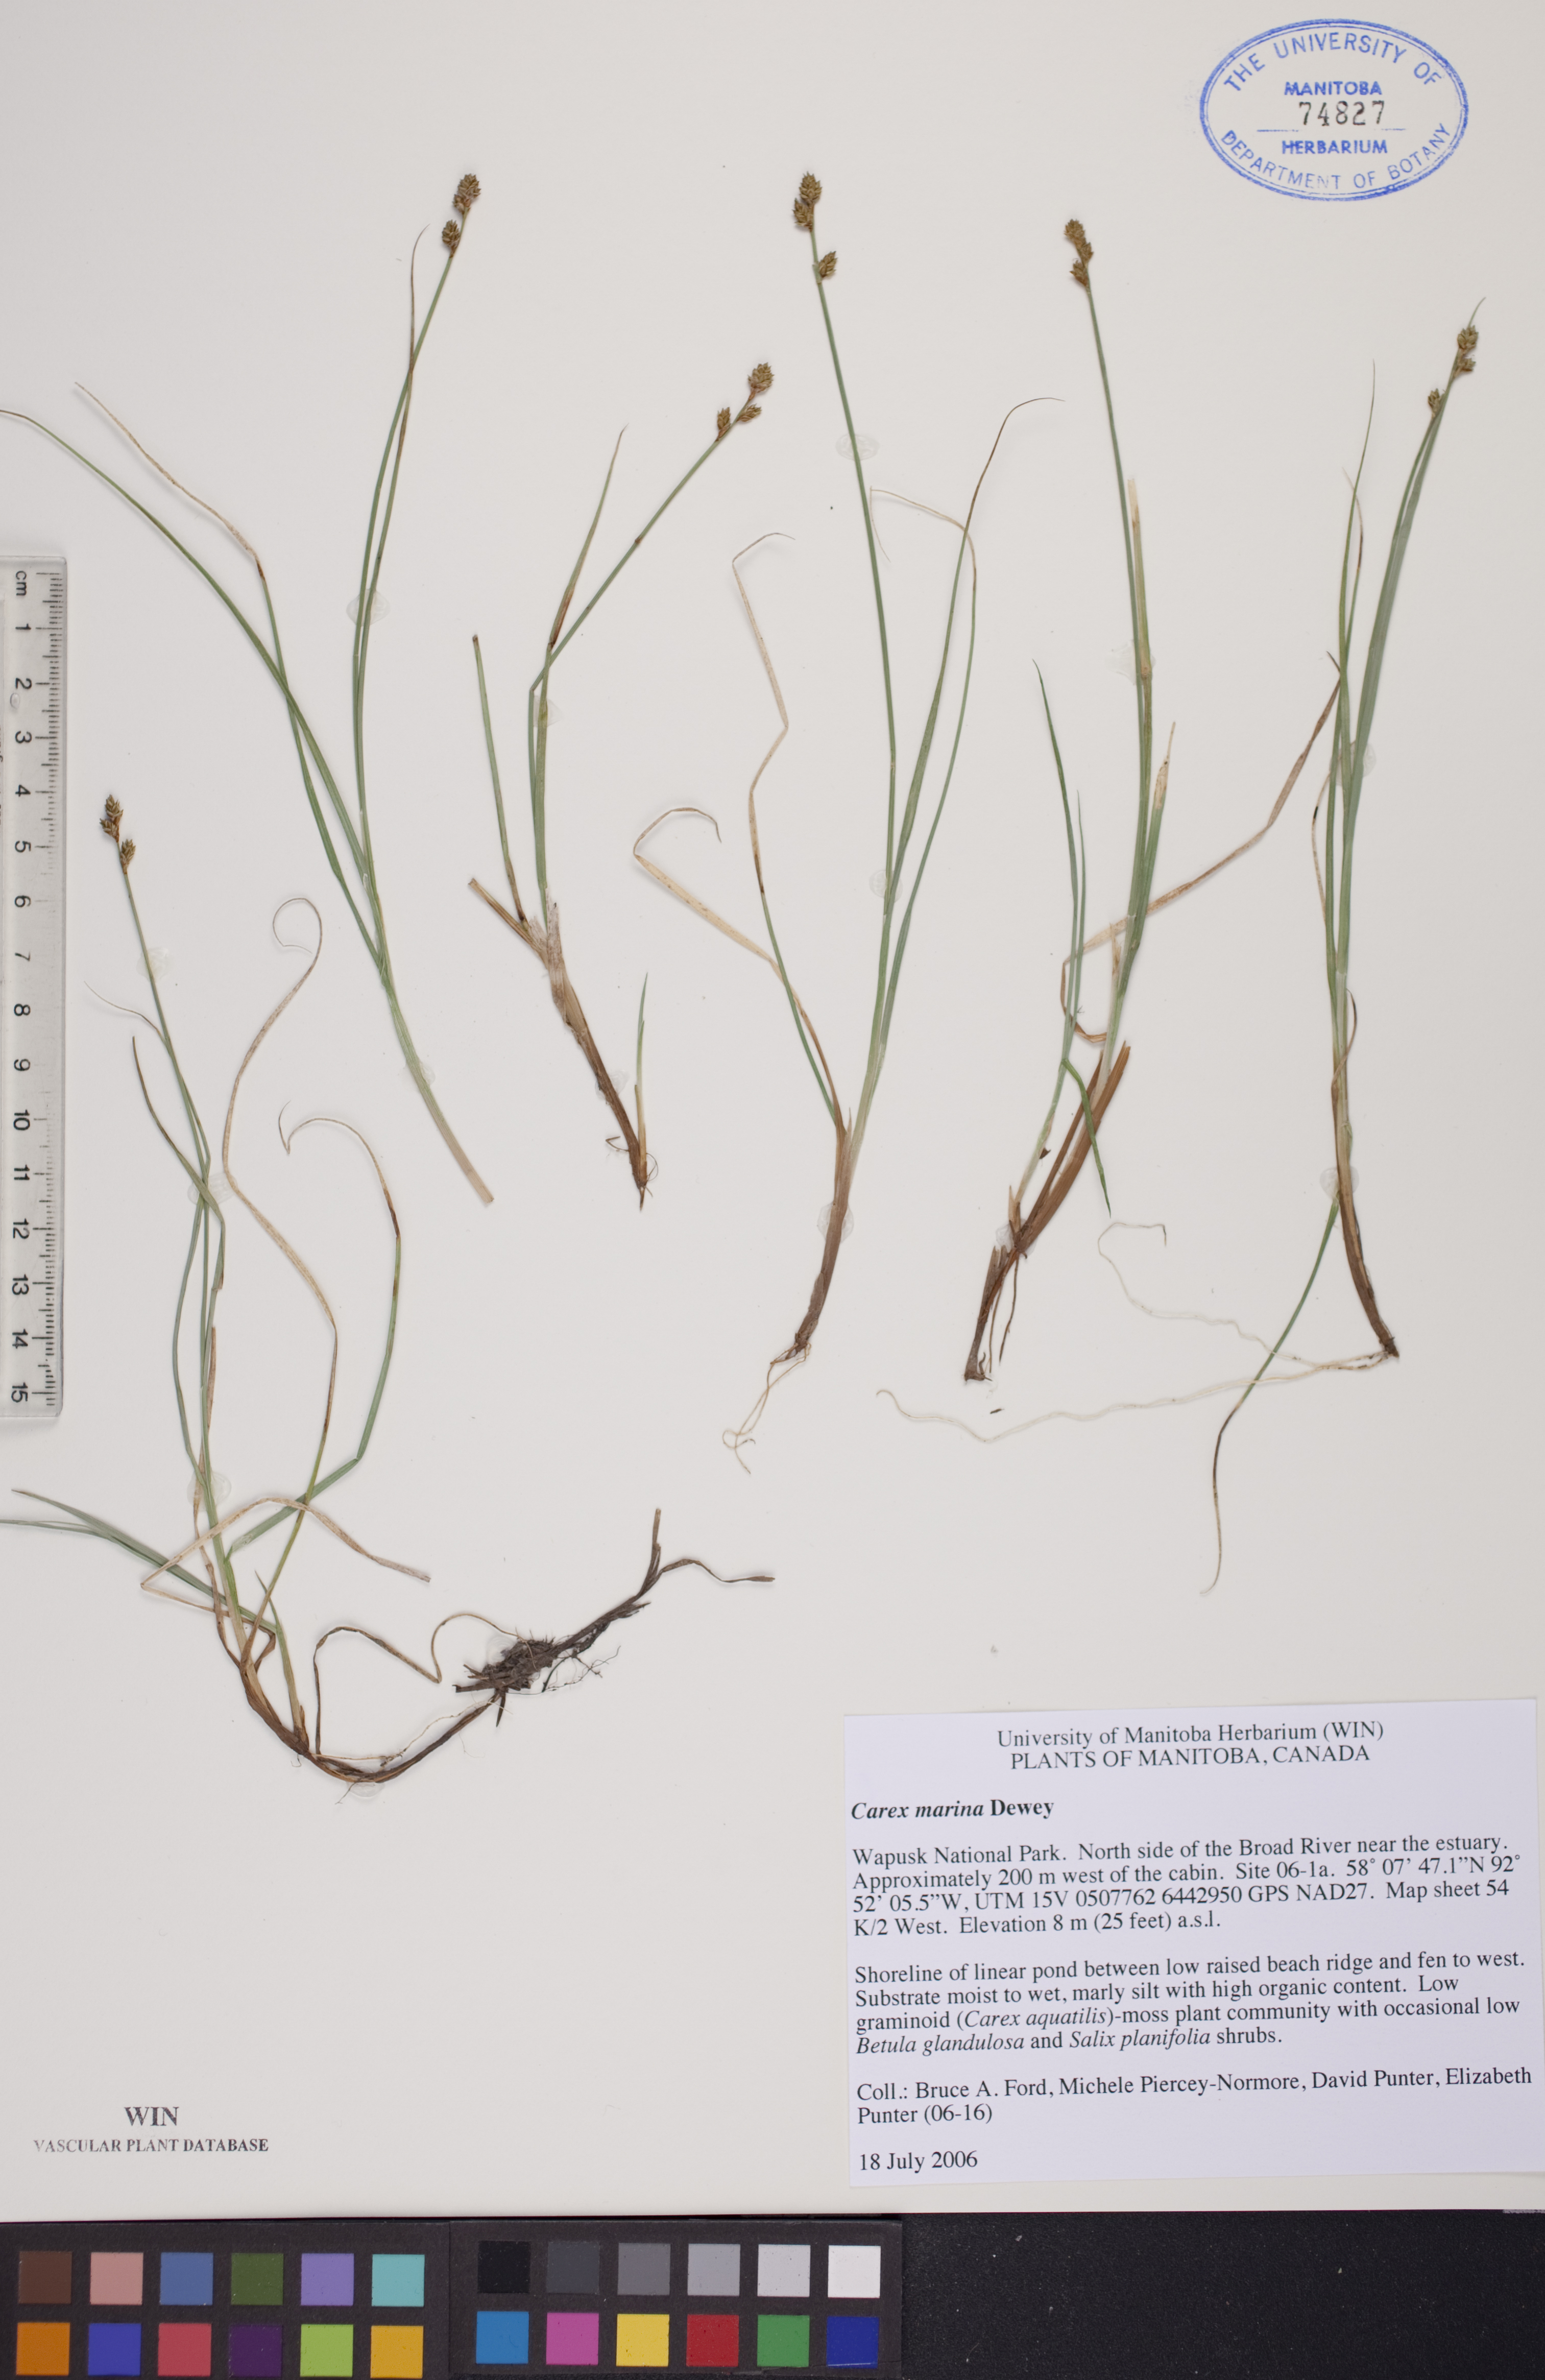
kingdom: Plantae
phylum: Tracheophyta
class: Liliopsida
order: Poales
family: Cyperaceae
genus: Carex
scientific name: Carex marina
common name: Seashore sedge
